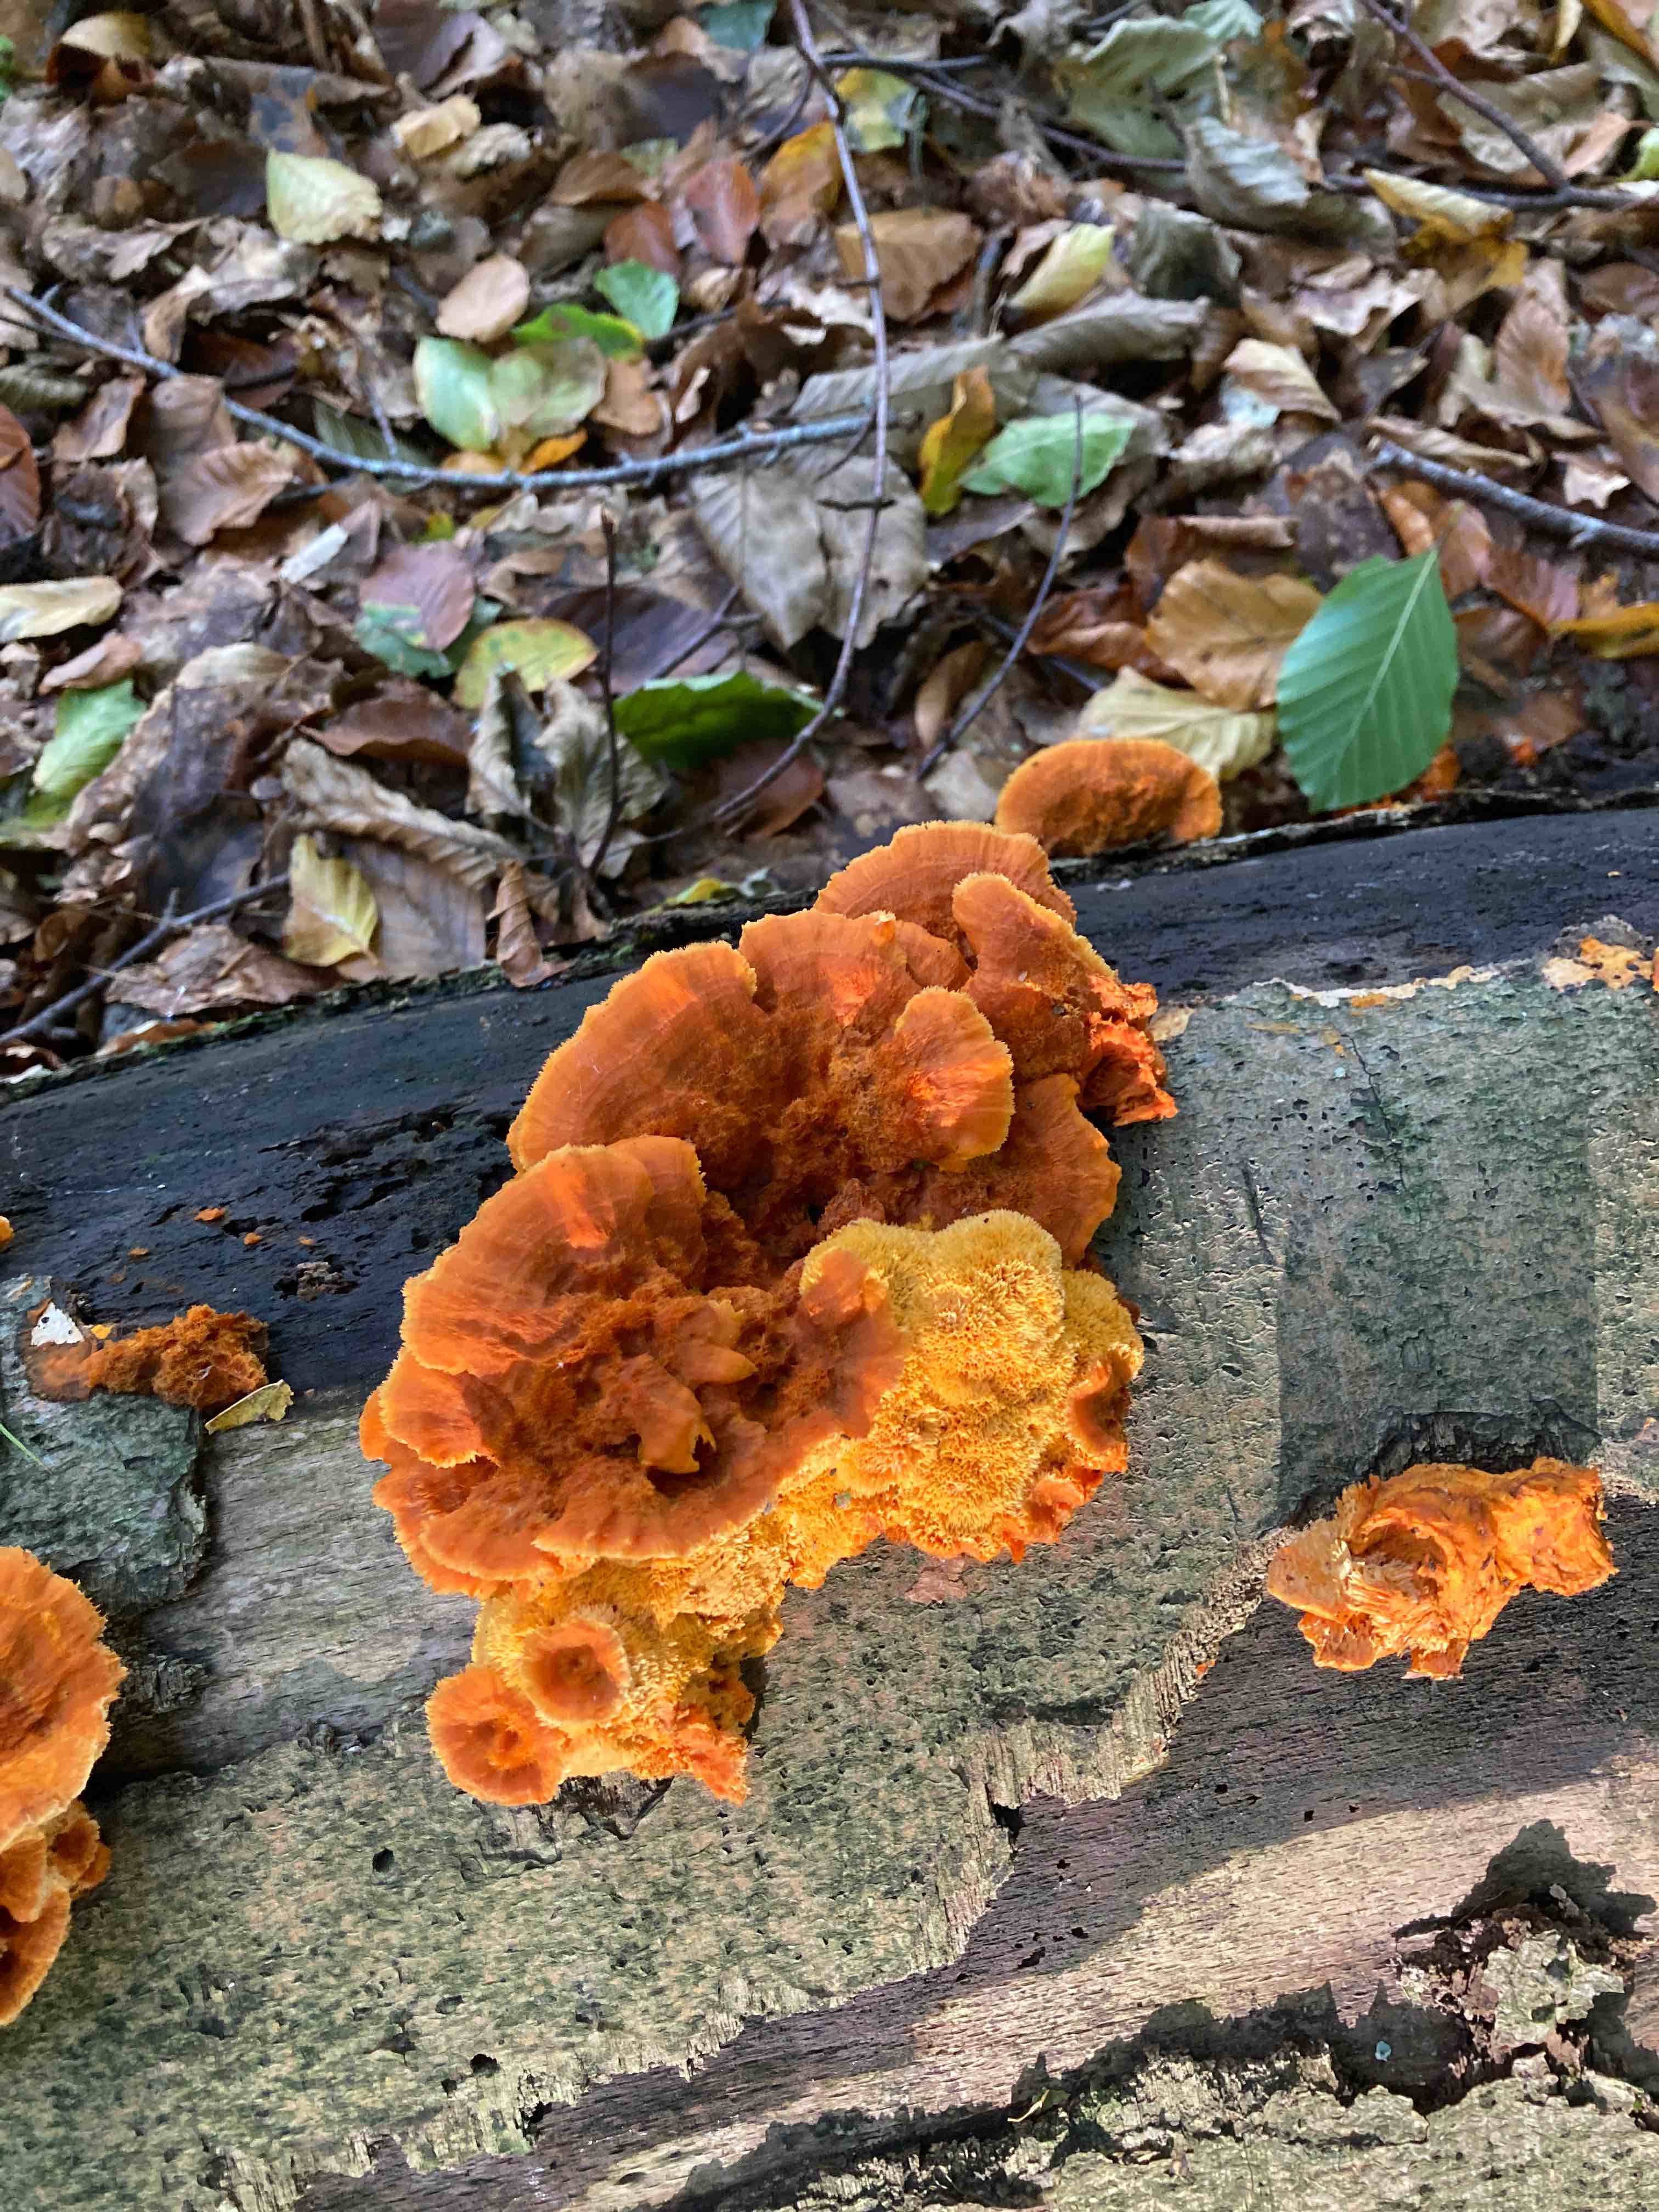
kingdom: Fungi
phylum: Basidiomycota
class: Agaricomycetes
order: Polyporales
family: Pycnoporellaceae
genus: Pycnoporellus
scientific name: Pycnoporellus fulgens
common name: flammeporesvamp
